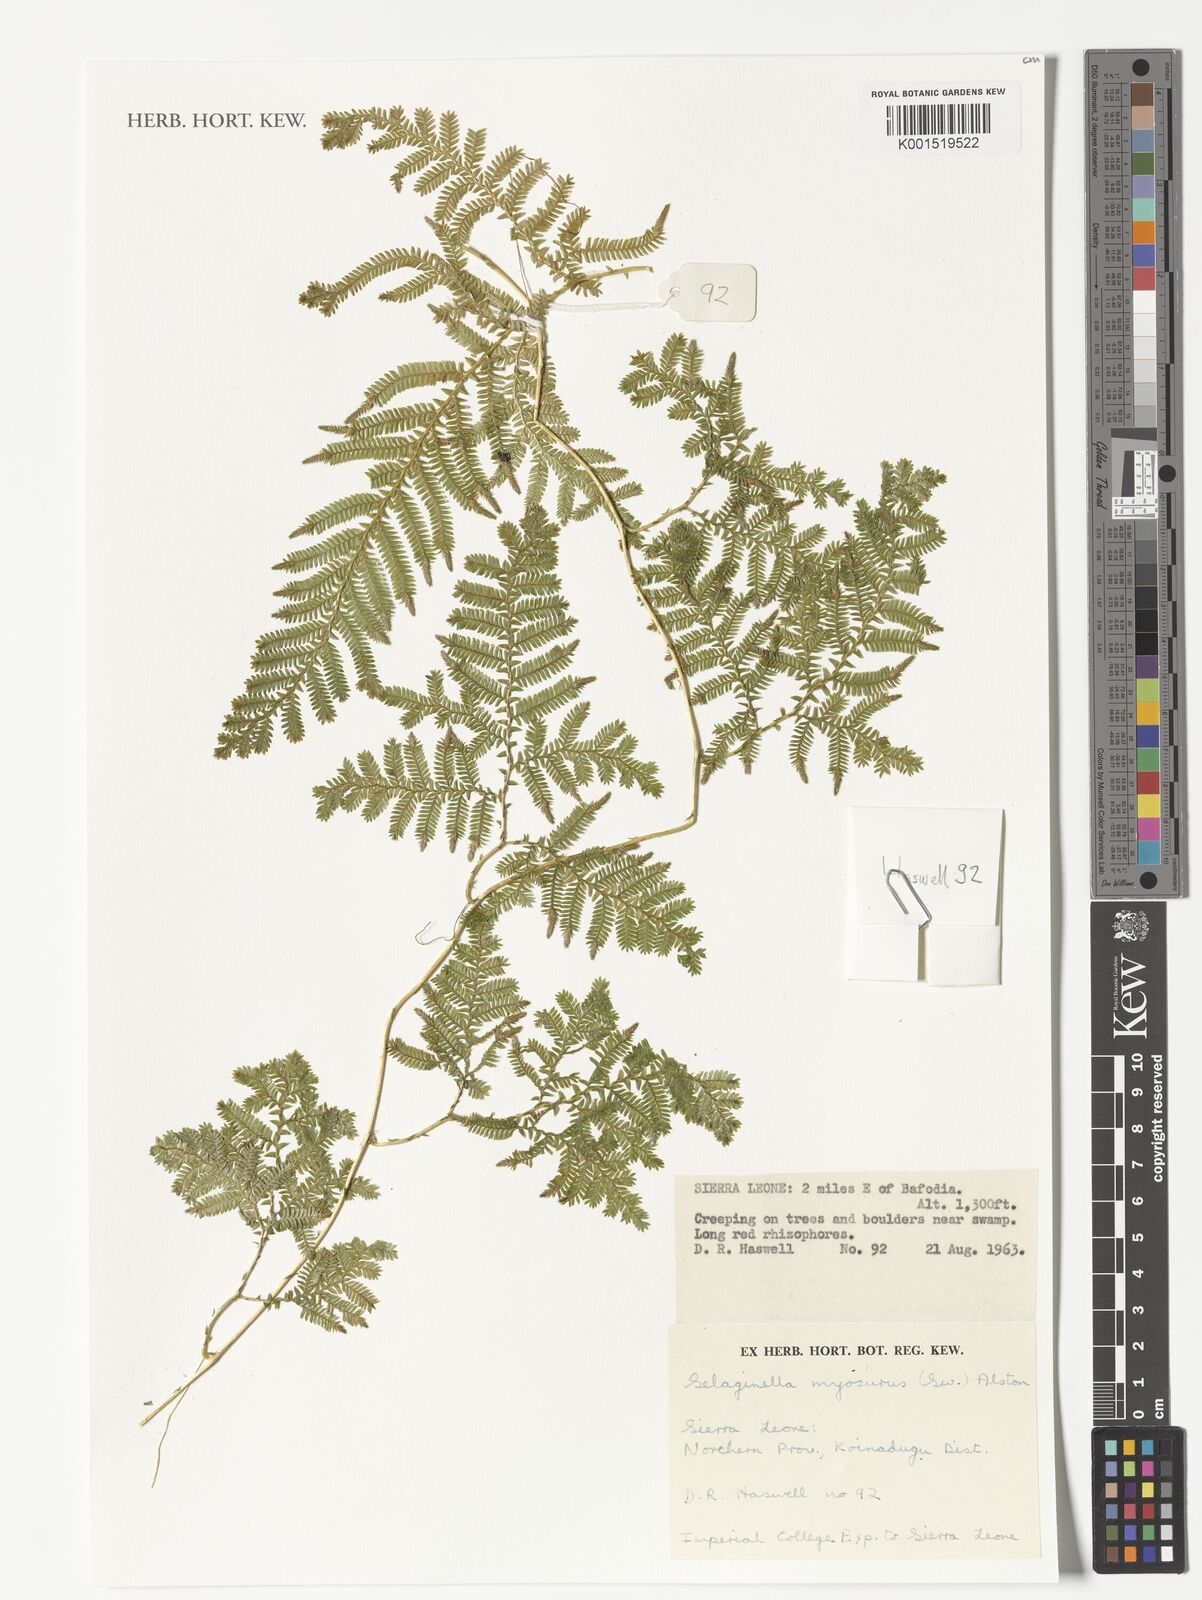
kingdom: Plantae
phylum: Tracheophyta
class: Lycopodiopsida
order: Selaginellales
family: Selaginellaceae
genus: Selaginella
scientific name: Selaginella myosurus
